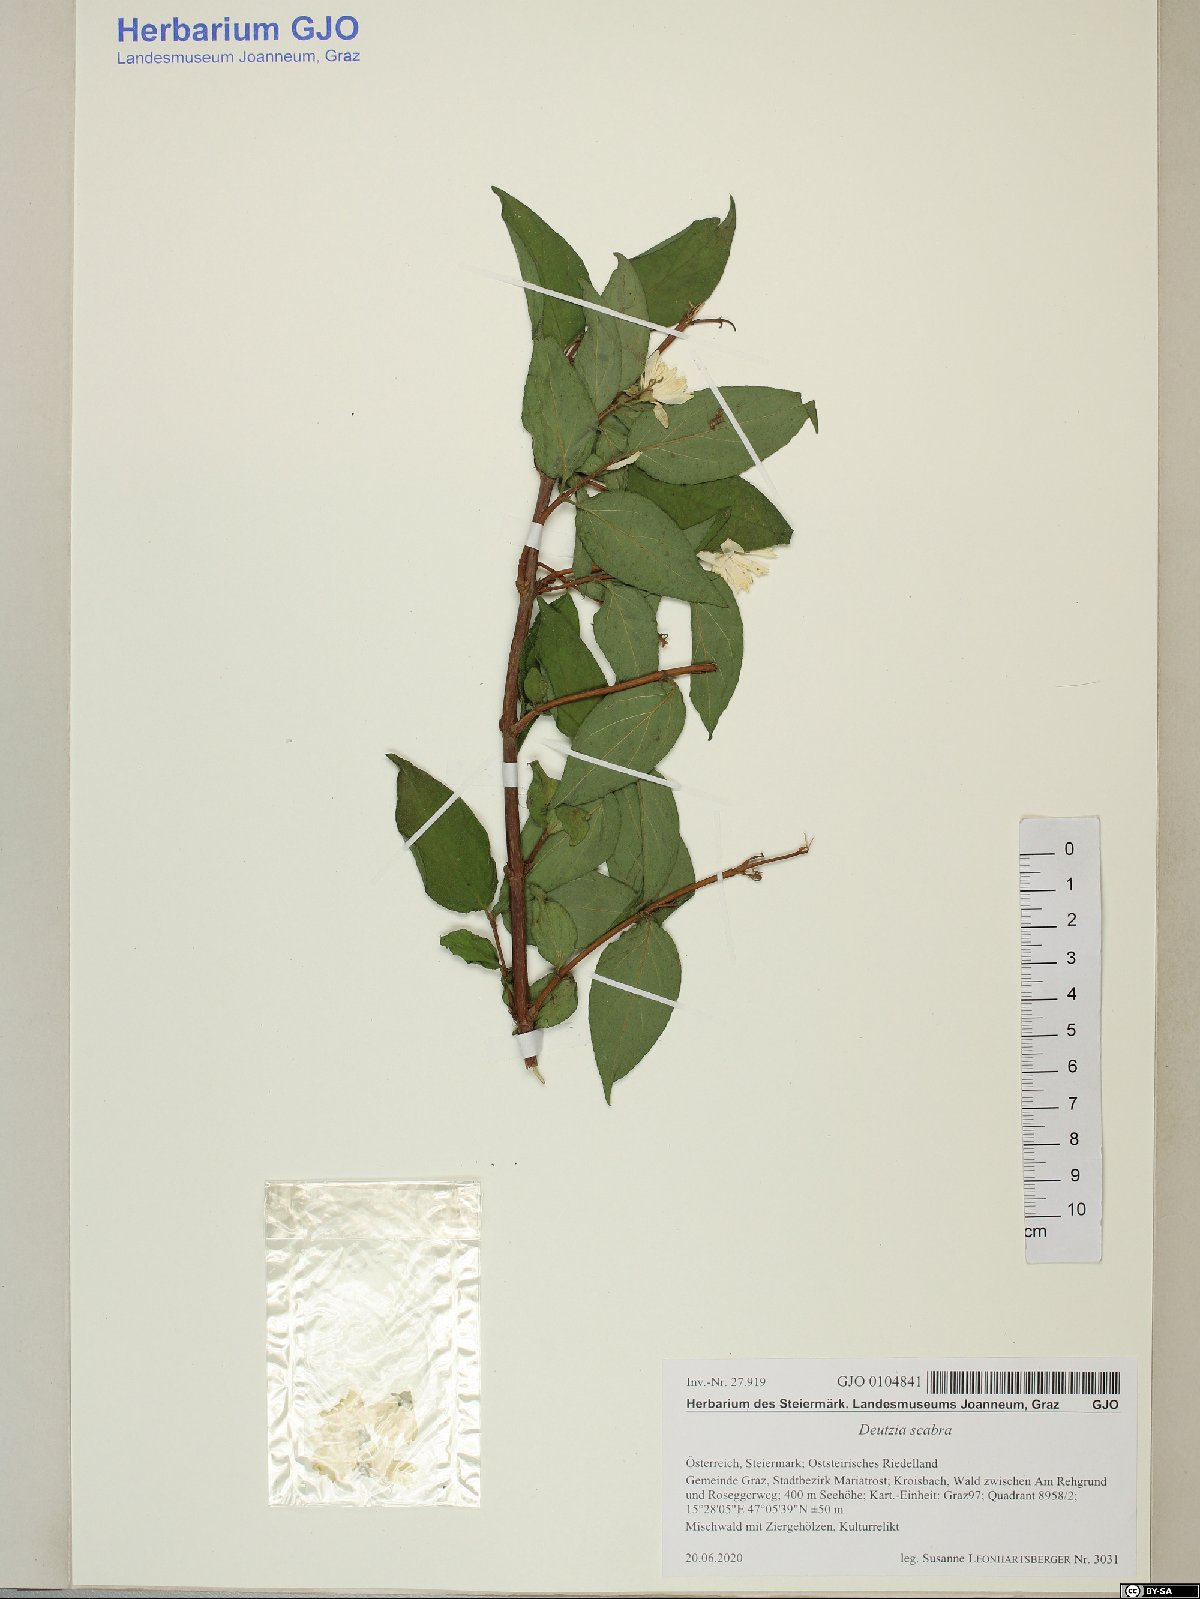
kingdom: Plantae
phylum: Tracheophyta
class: Magnoliopsida
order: Cornales
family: Hydrangeaceae
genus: Deutzia
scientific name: Deutzia scabra
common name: Deutzia
